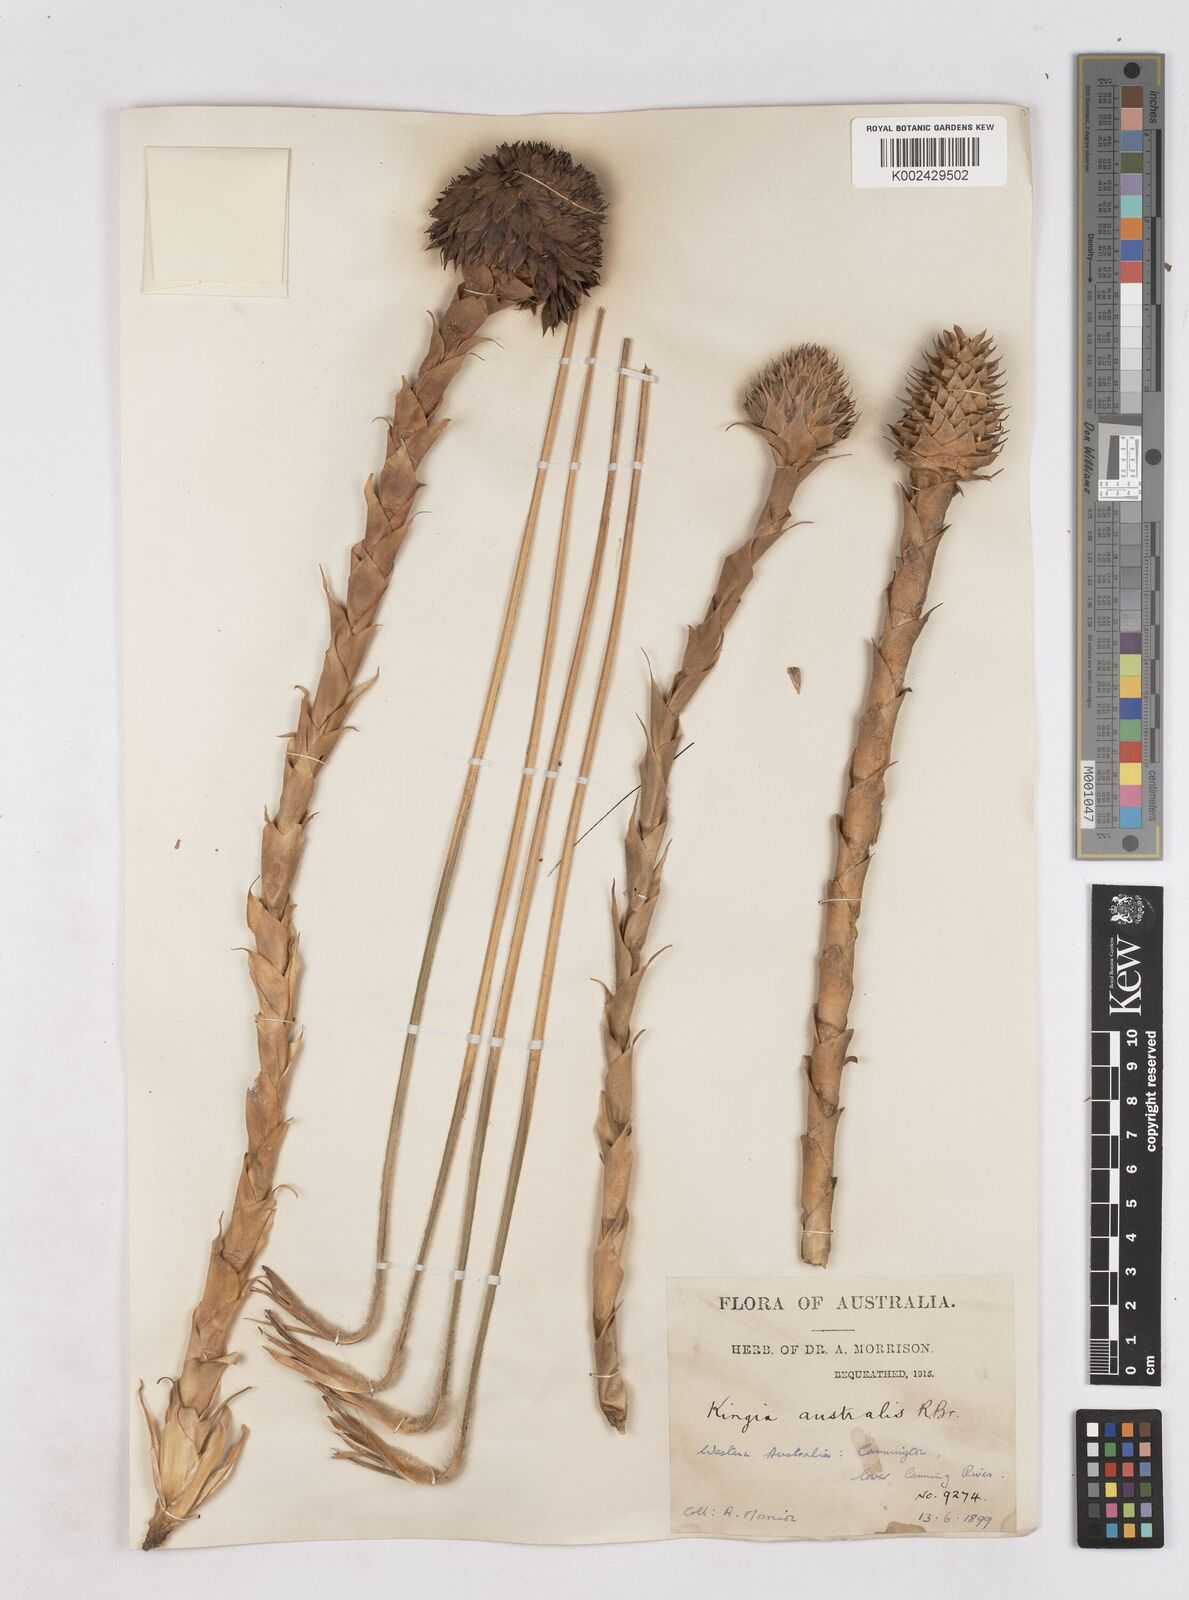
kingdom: Plantae
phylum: Tracheophyta
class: Liliopsida
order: Arecales
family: Dasypogonaceae
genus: Kingia
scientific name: Kingia australis
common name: Black gin
